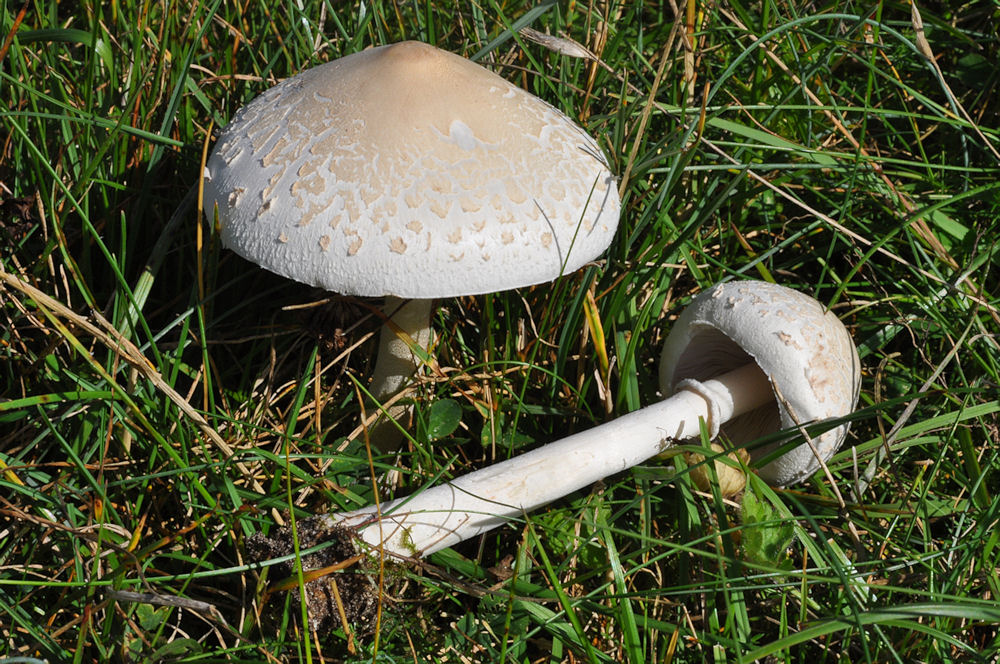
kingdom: Fungi
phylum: Basidiomycota
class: Agaricomycetes
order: Agaricales
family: Agaricaceae
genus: Macrolepiota
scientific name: Macrolepiota excoriata
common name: mark-kæmpeparasolhat
